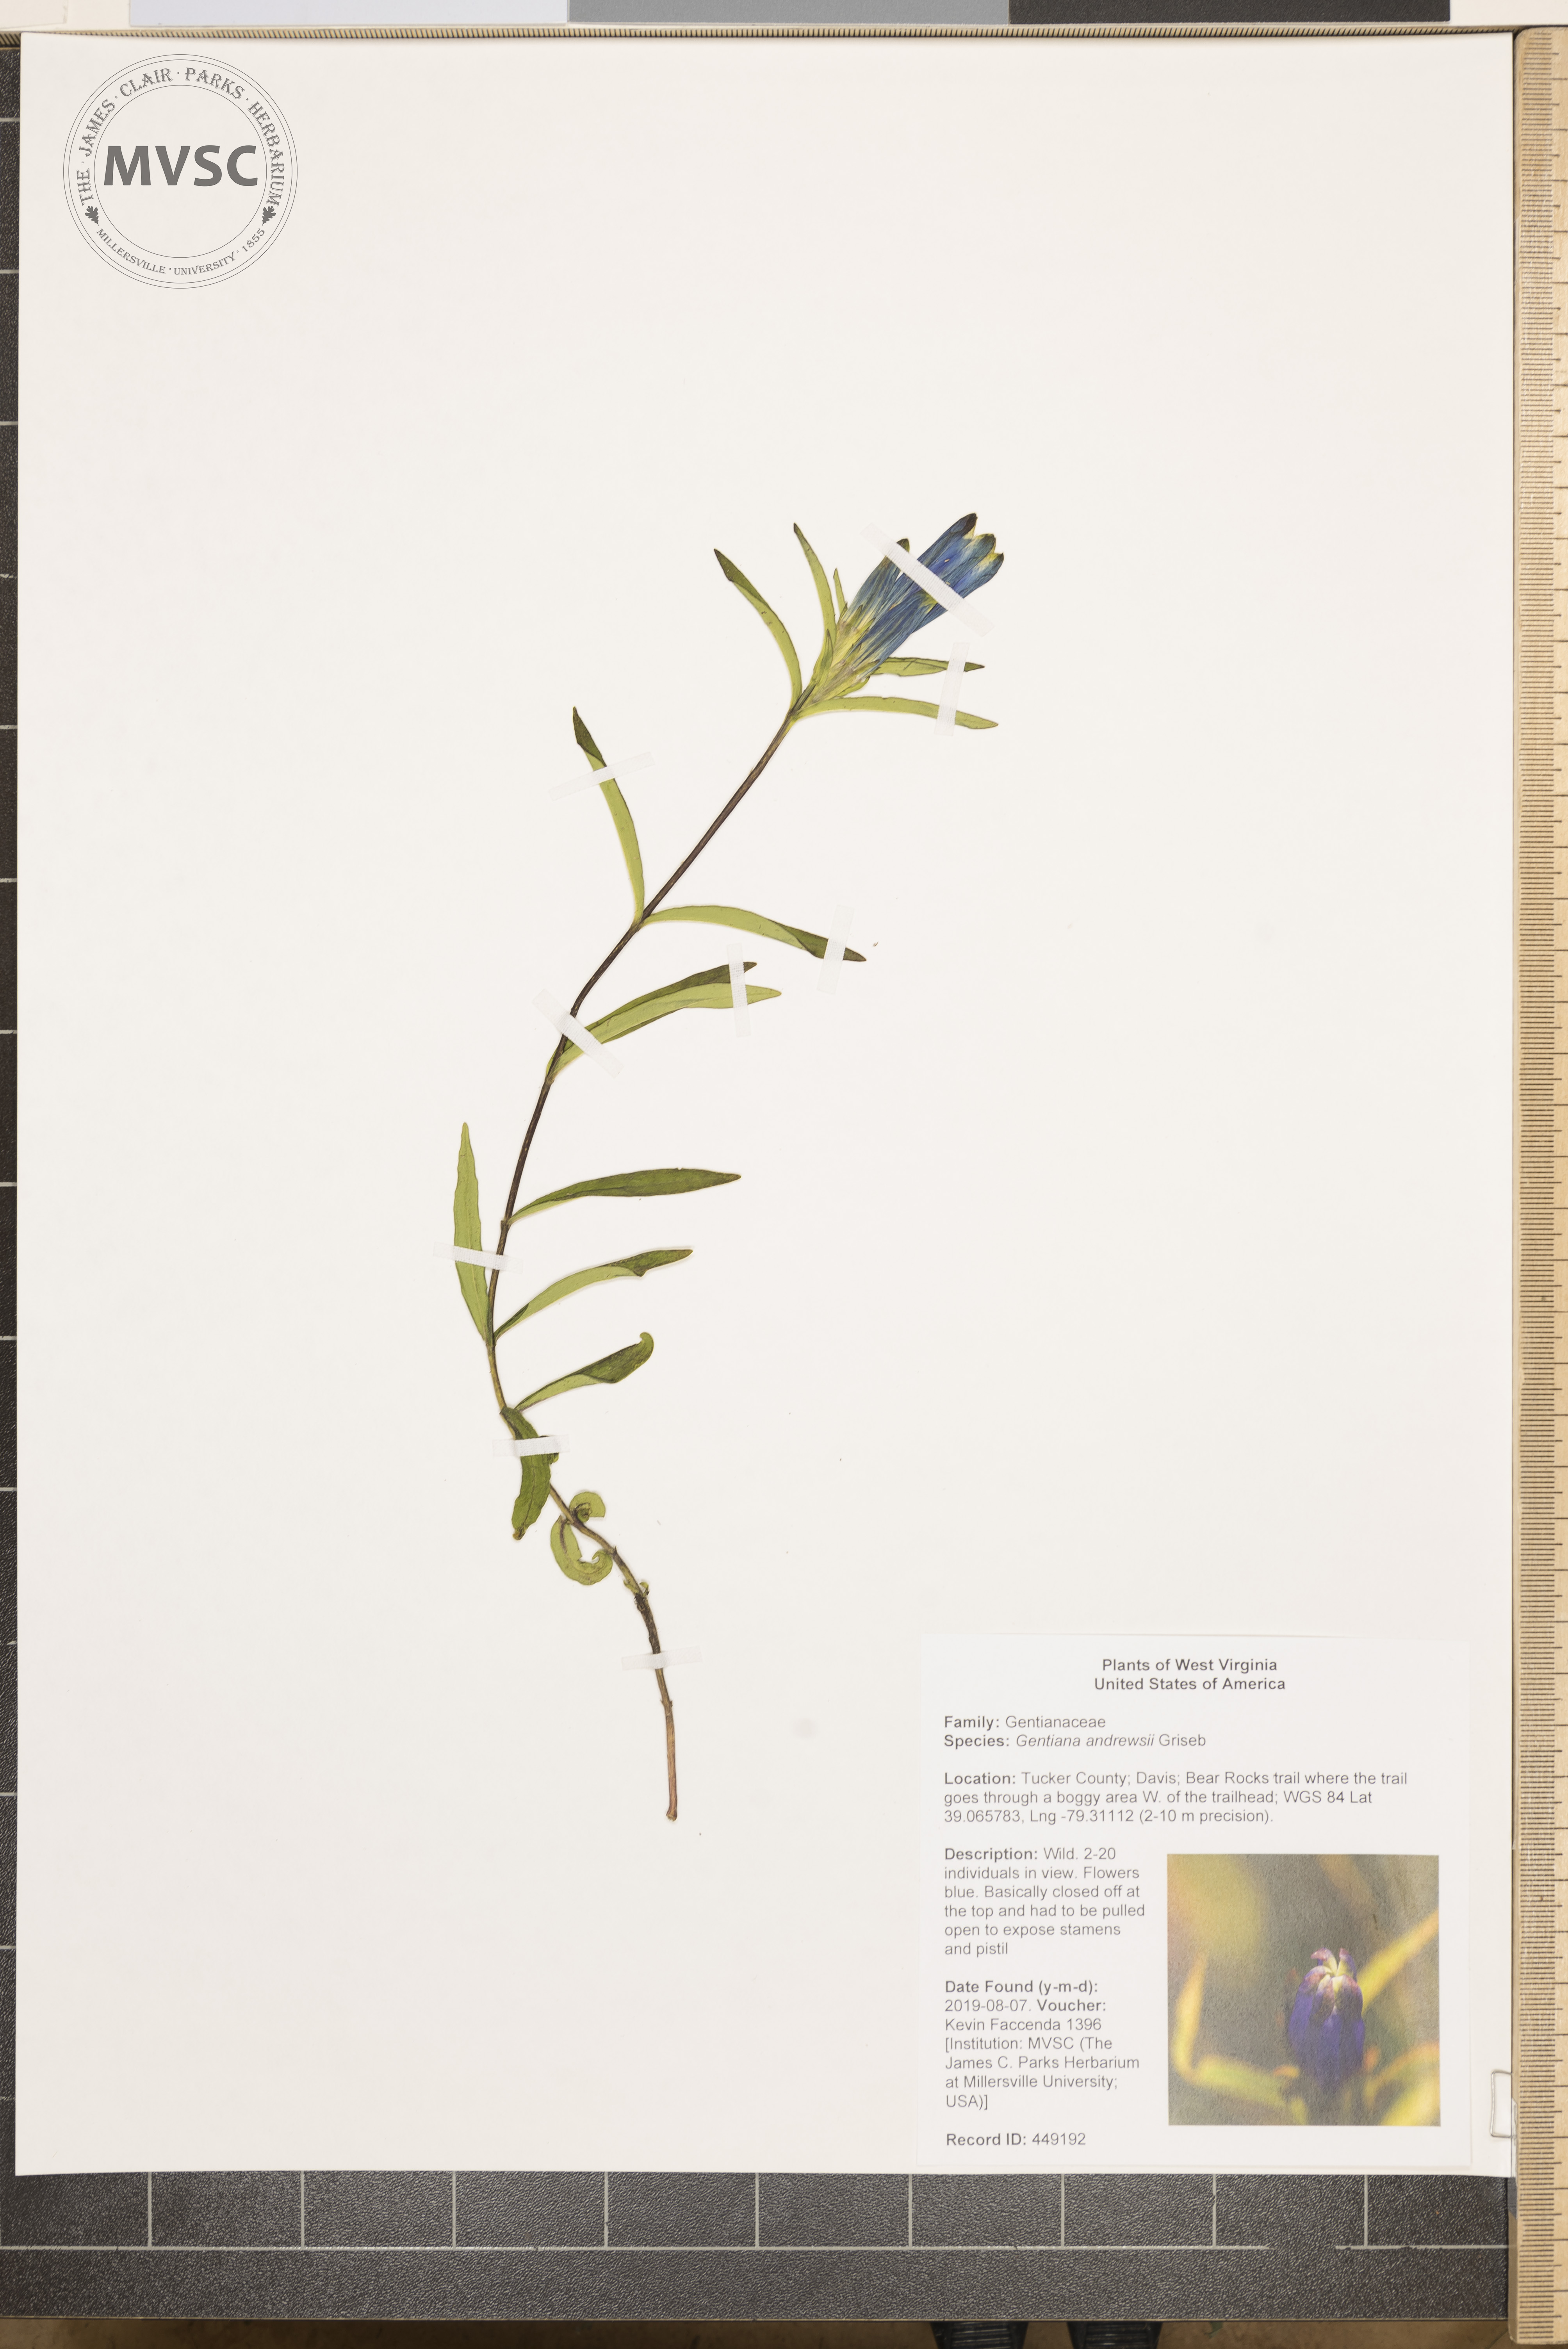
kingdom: Plantae
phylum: Tracheophyta
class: Magnoliopsida
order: Gentianales
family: Gentianaceae
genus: Gentiana
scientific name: Gentiana andrewsii
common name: Bottle gentian
